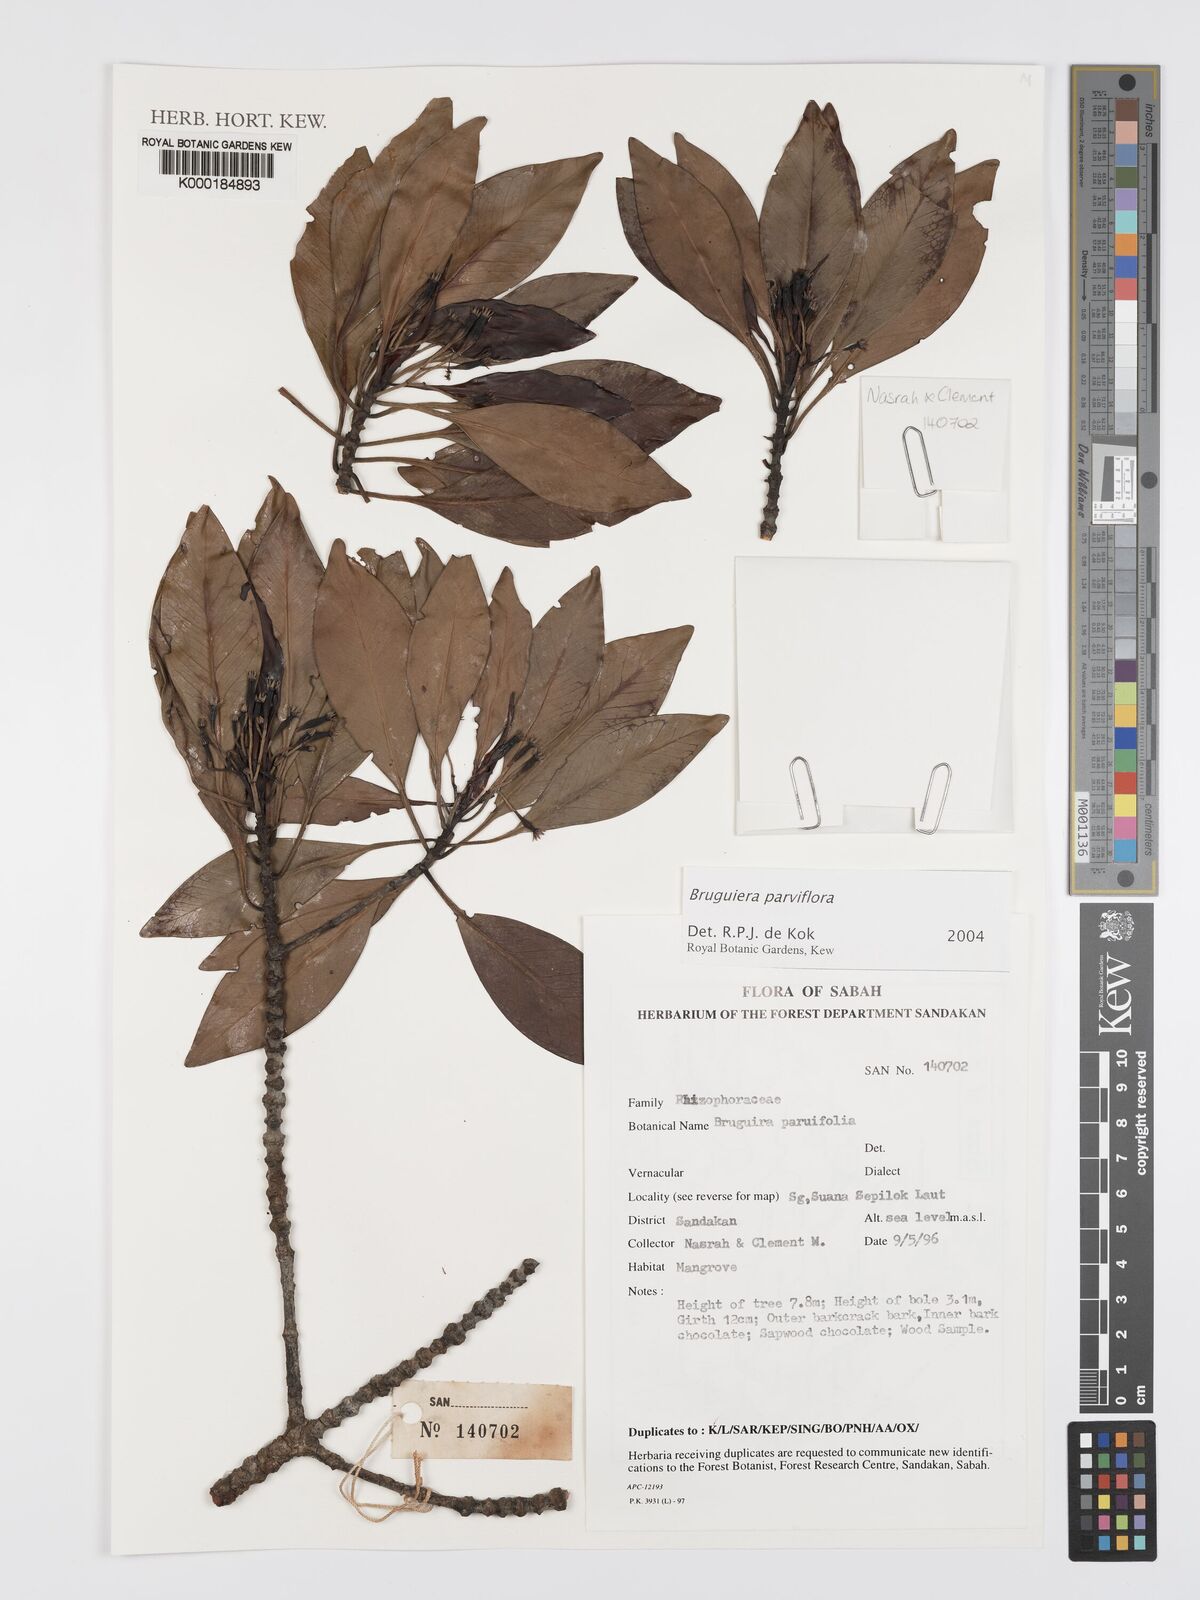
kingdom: Plantae
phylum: Tracheophyta
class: Magnoliopsida
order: Malpighiales
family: Rhizophoraceae
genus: Bruguiera
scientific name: Bruguiera
